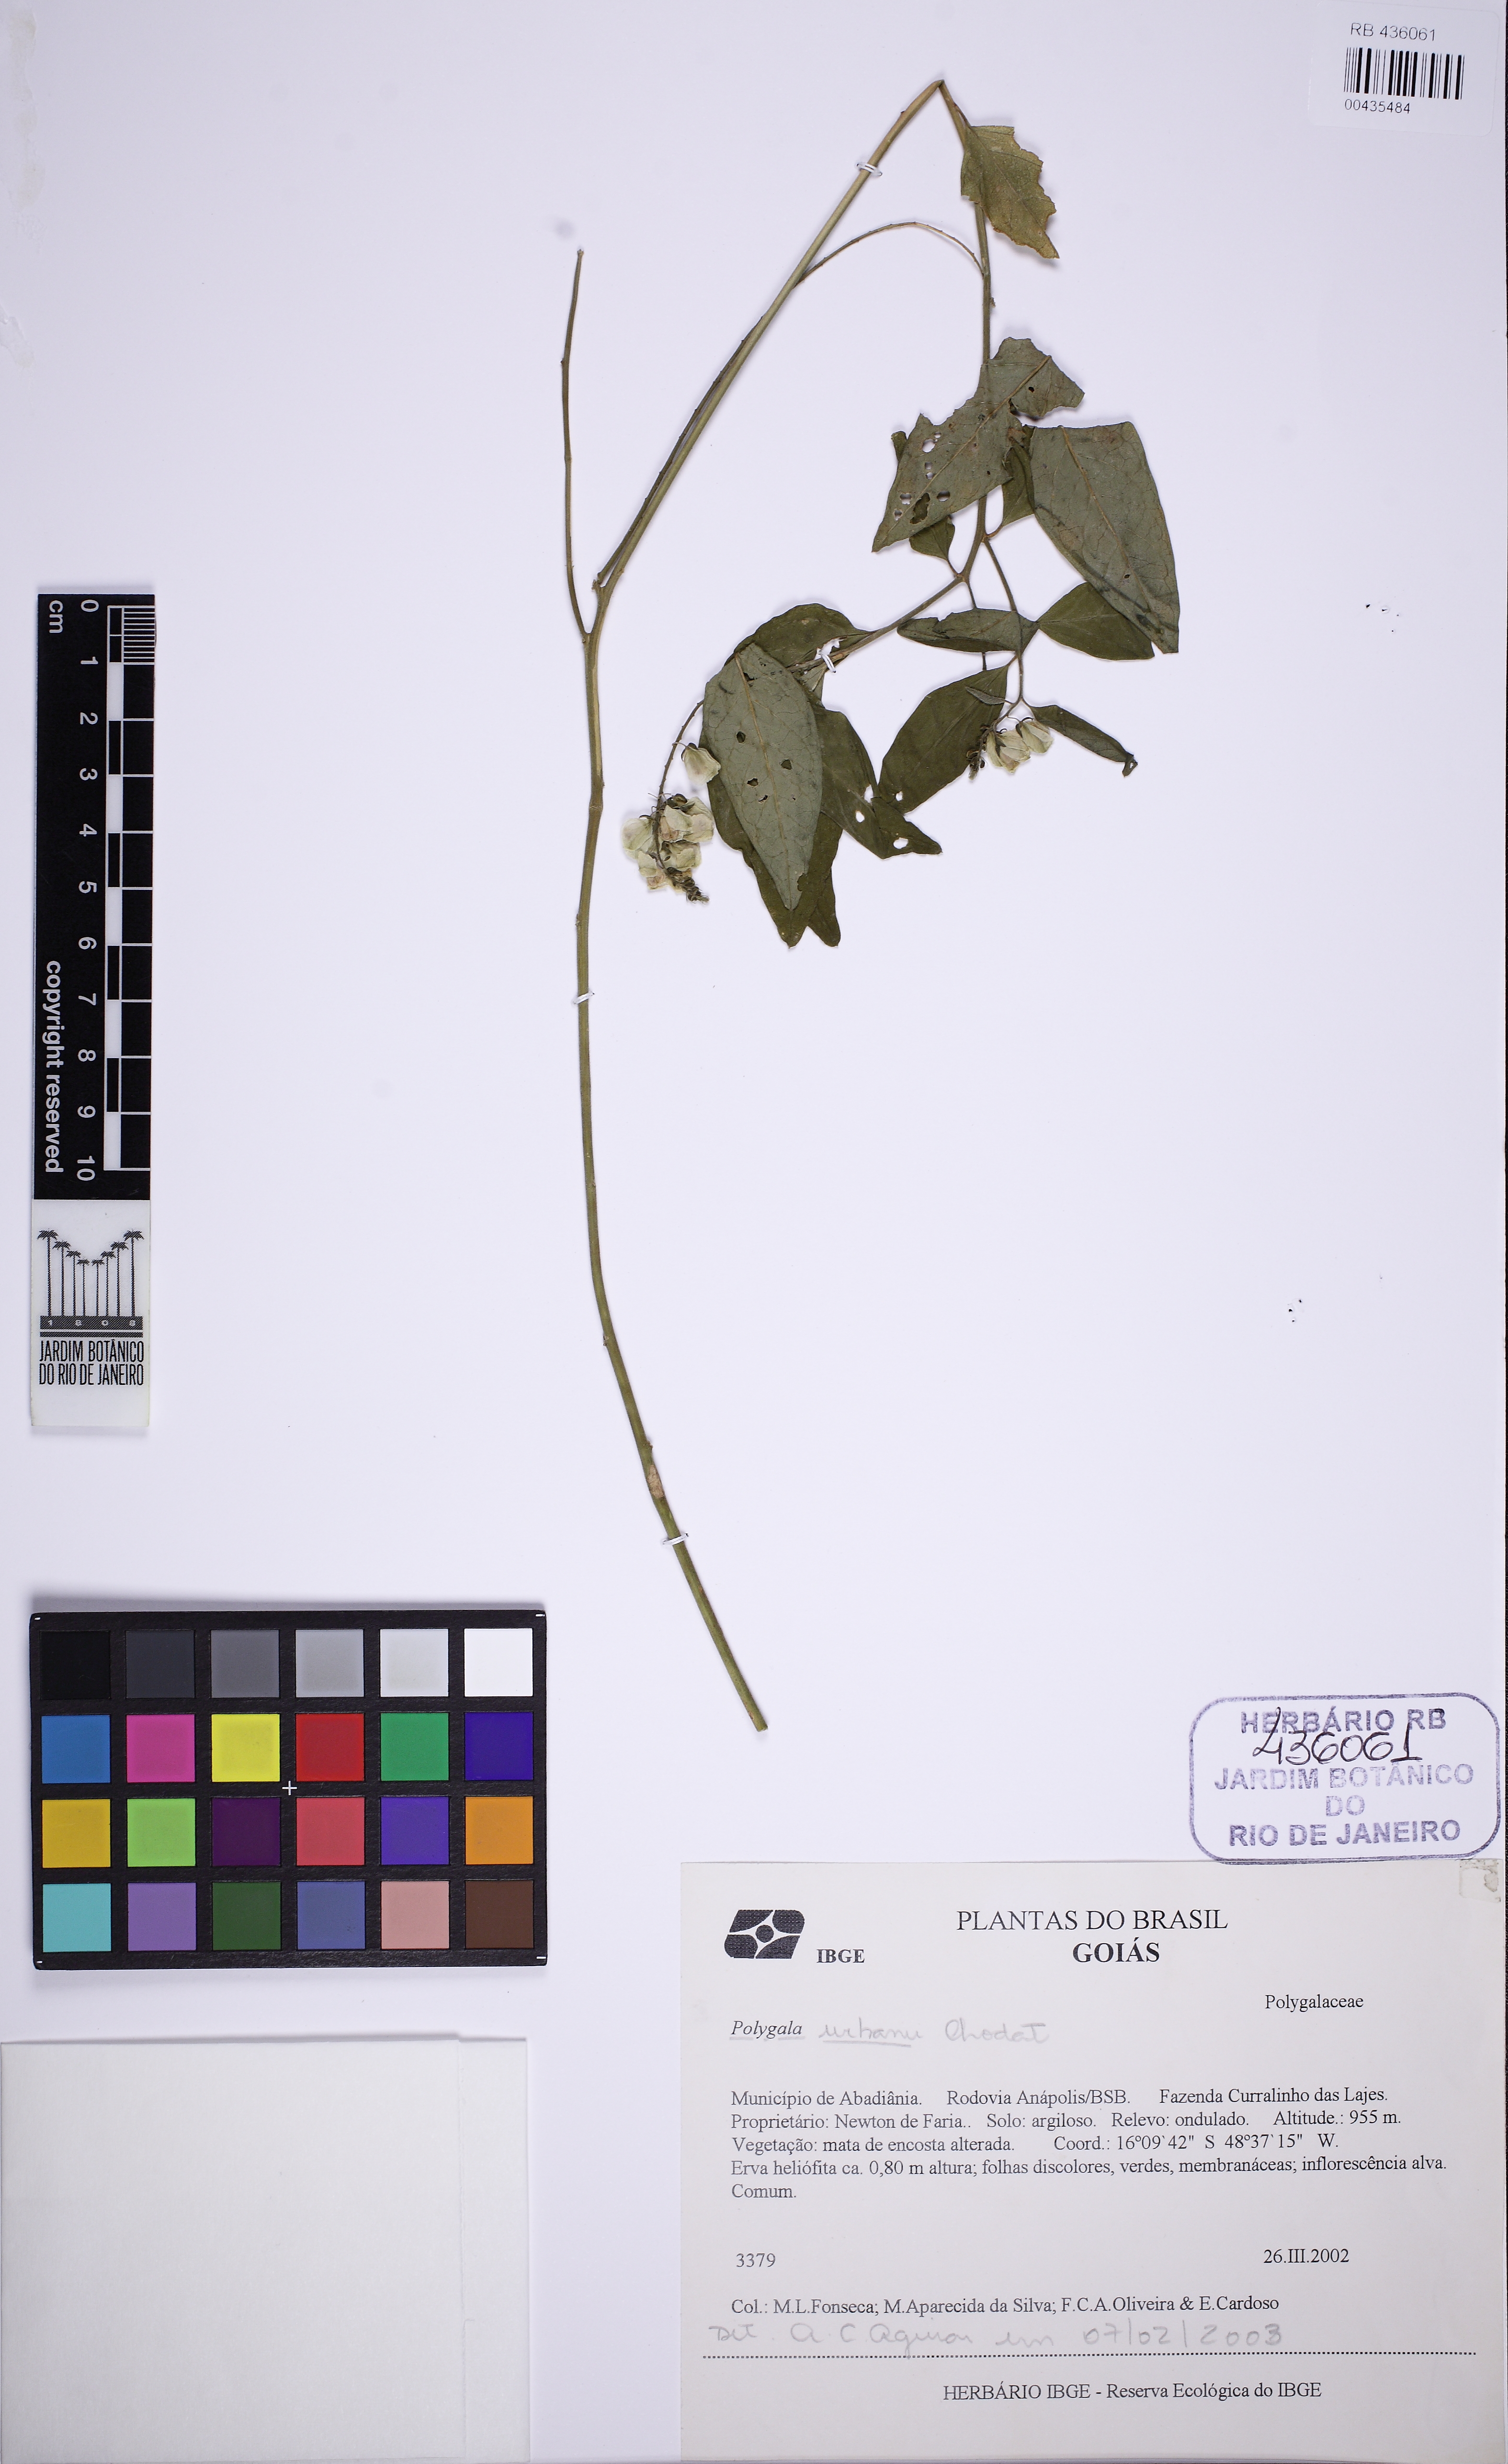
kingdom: Plantae
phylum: Tracheophyta
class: Magnoliopsida
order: Fabales
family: Polygalaceae
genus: Asemeia
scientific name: Asemeia monninoides
